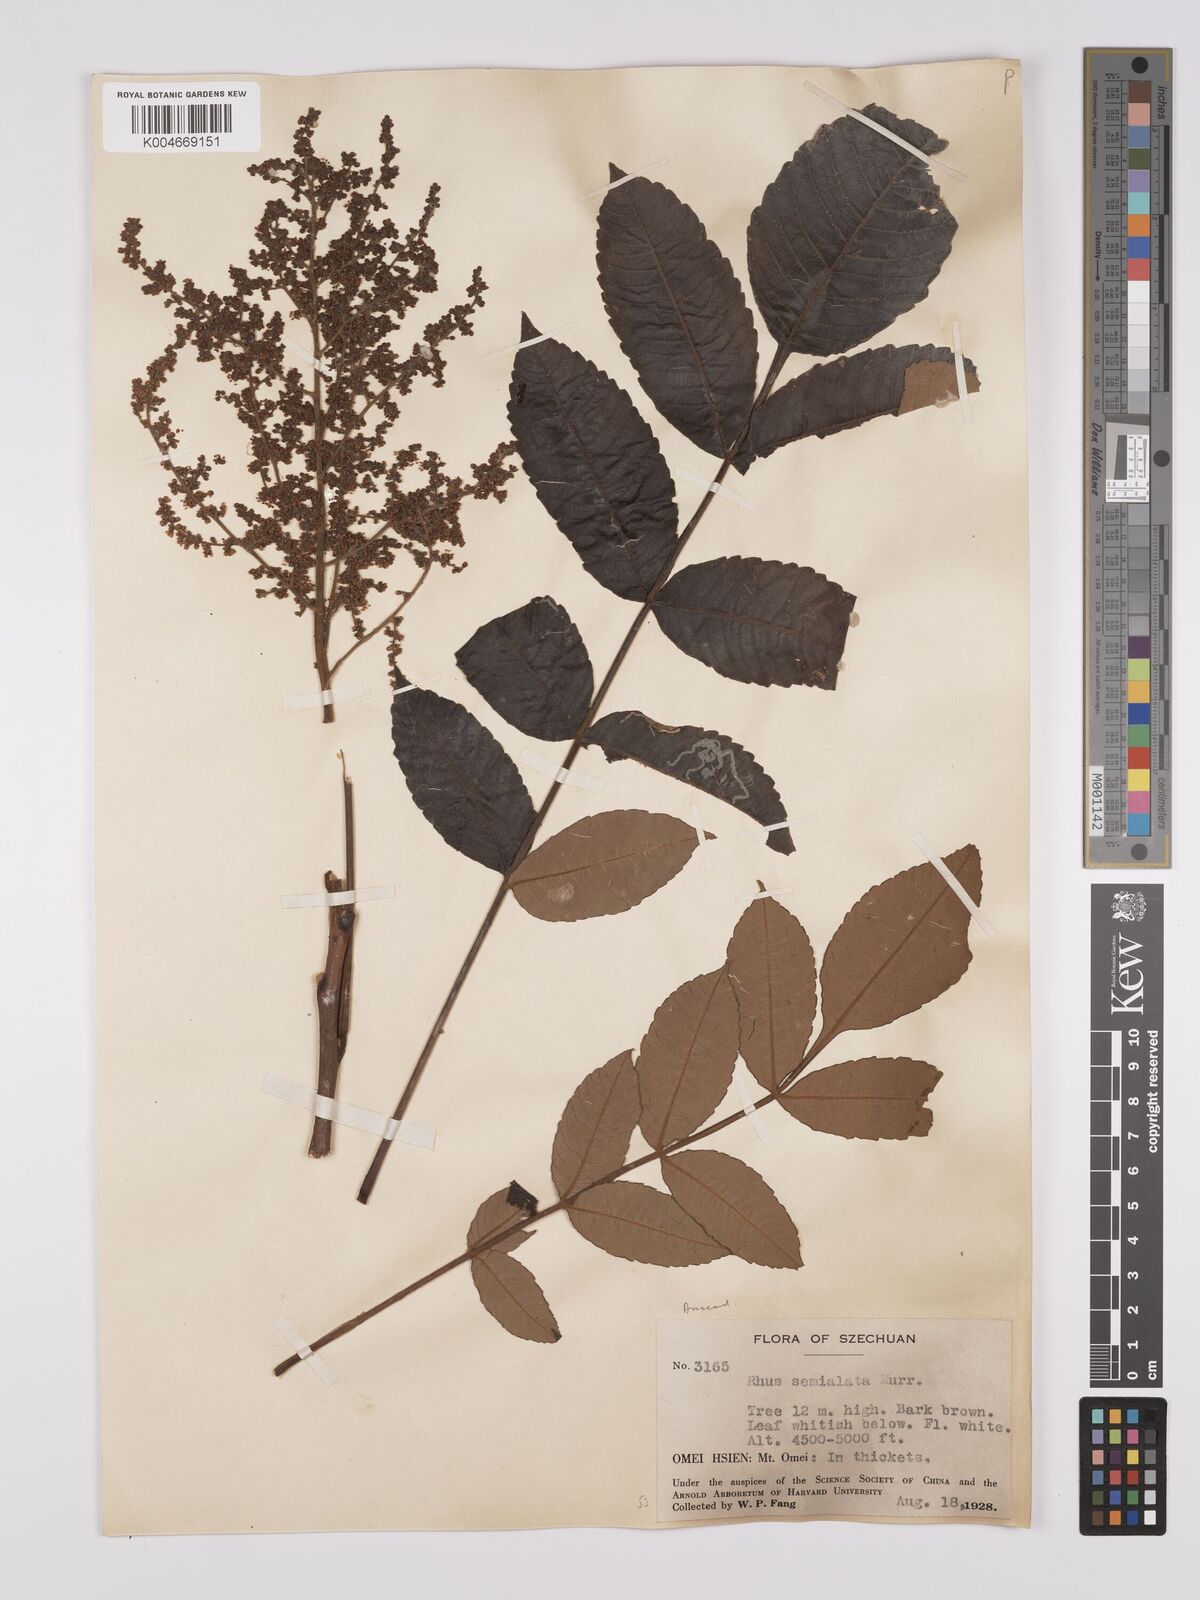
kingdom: Plantae
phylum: Tracheophyta
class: Magnoliopsida
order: Sapindales
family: Anacardiaceae
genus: Rhus
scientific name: Rhus chinensis
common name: Chinese gall
